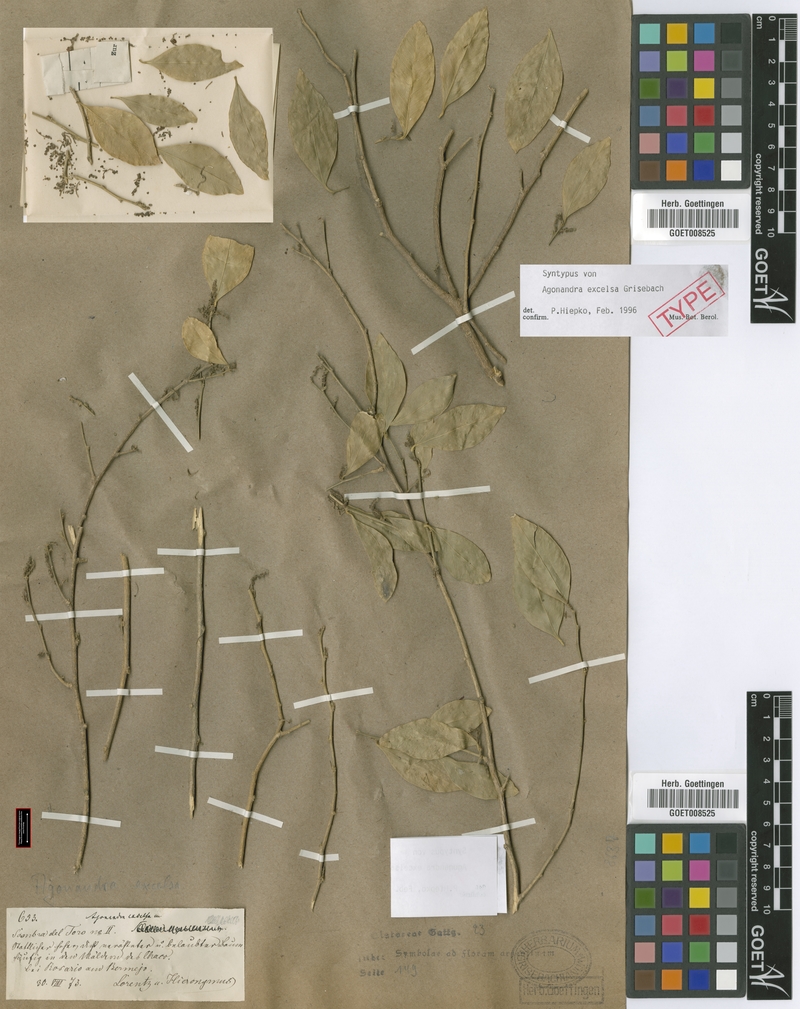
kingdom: Plantae
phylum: Tracheophyta
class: Magnoliopsida
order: Santalales
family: Opiliaceae
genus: Agonandra
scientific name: Agonandra excelsa
